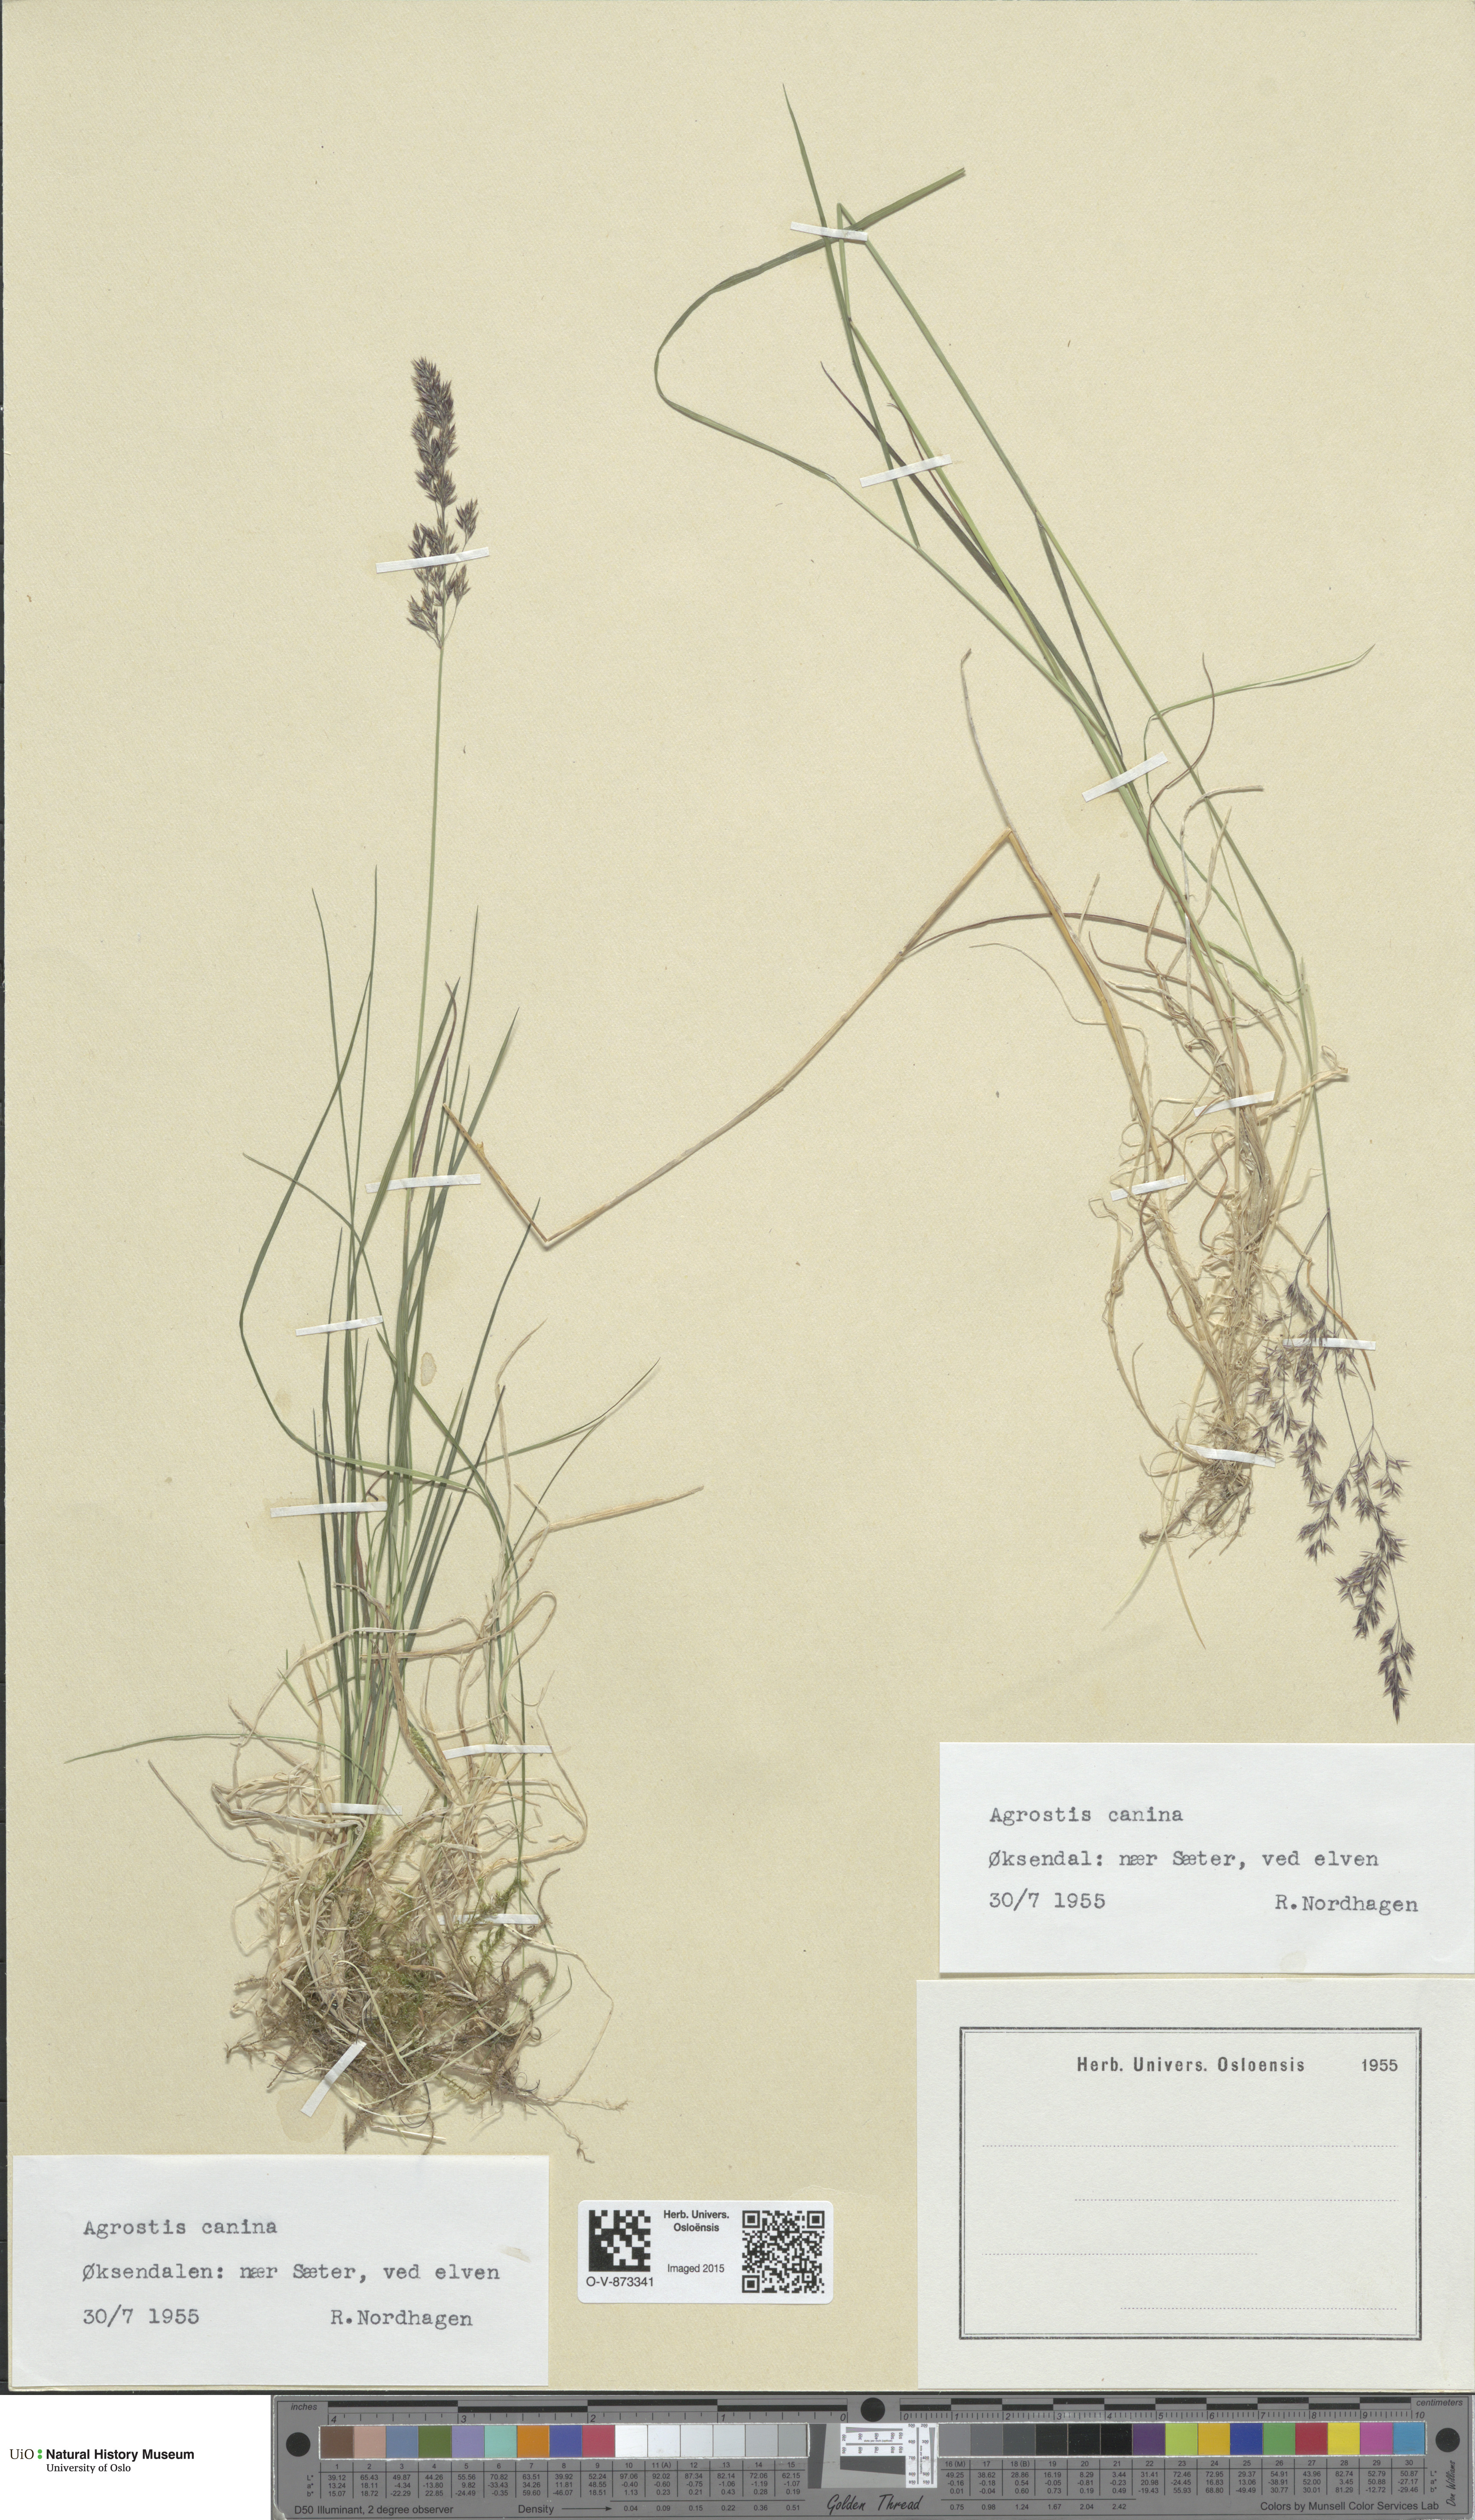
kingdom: Plantae
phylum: Tracheophyta
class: Liliopsida
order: Poales
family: Poaceae
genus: Agrostis
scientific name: Agrostis canina
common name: Velvet bent
